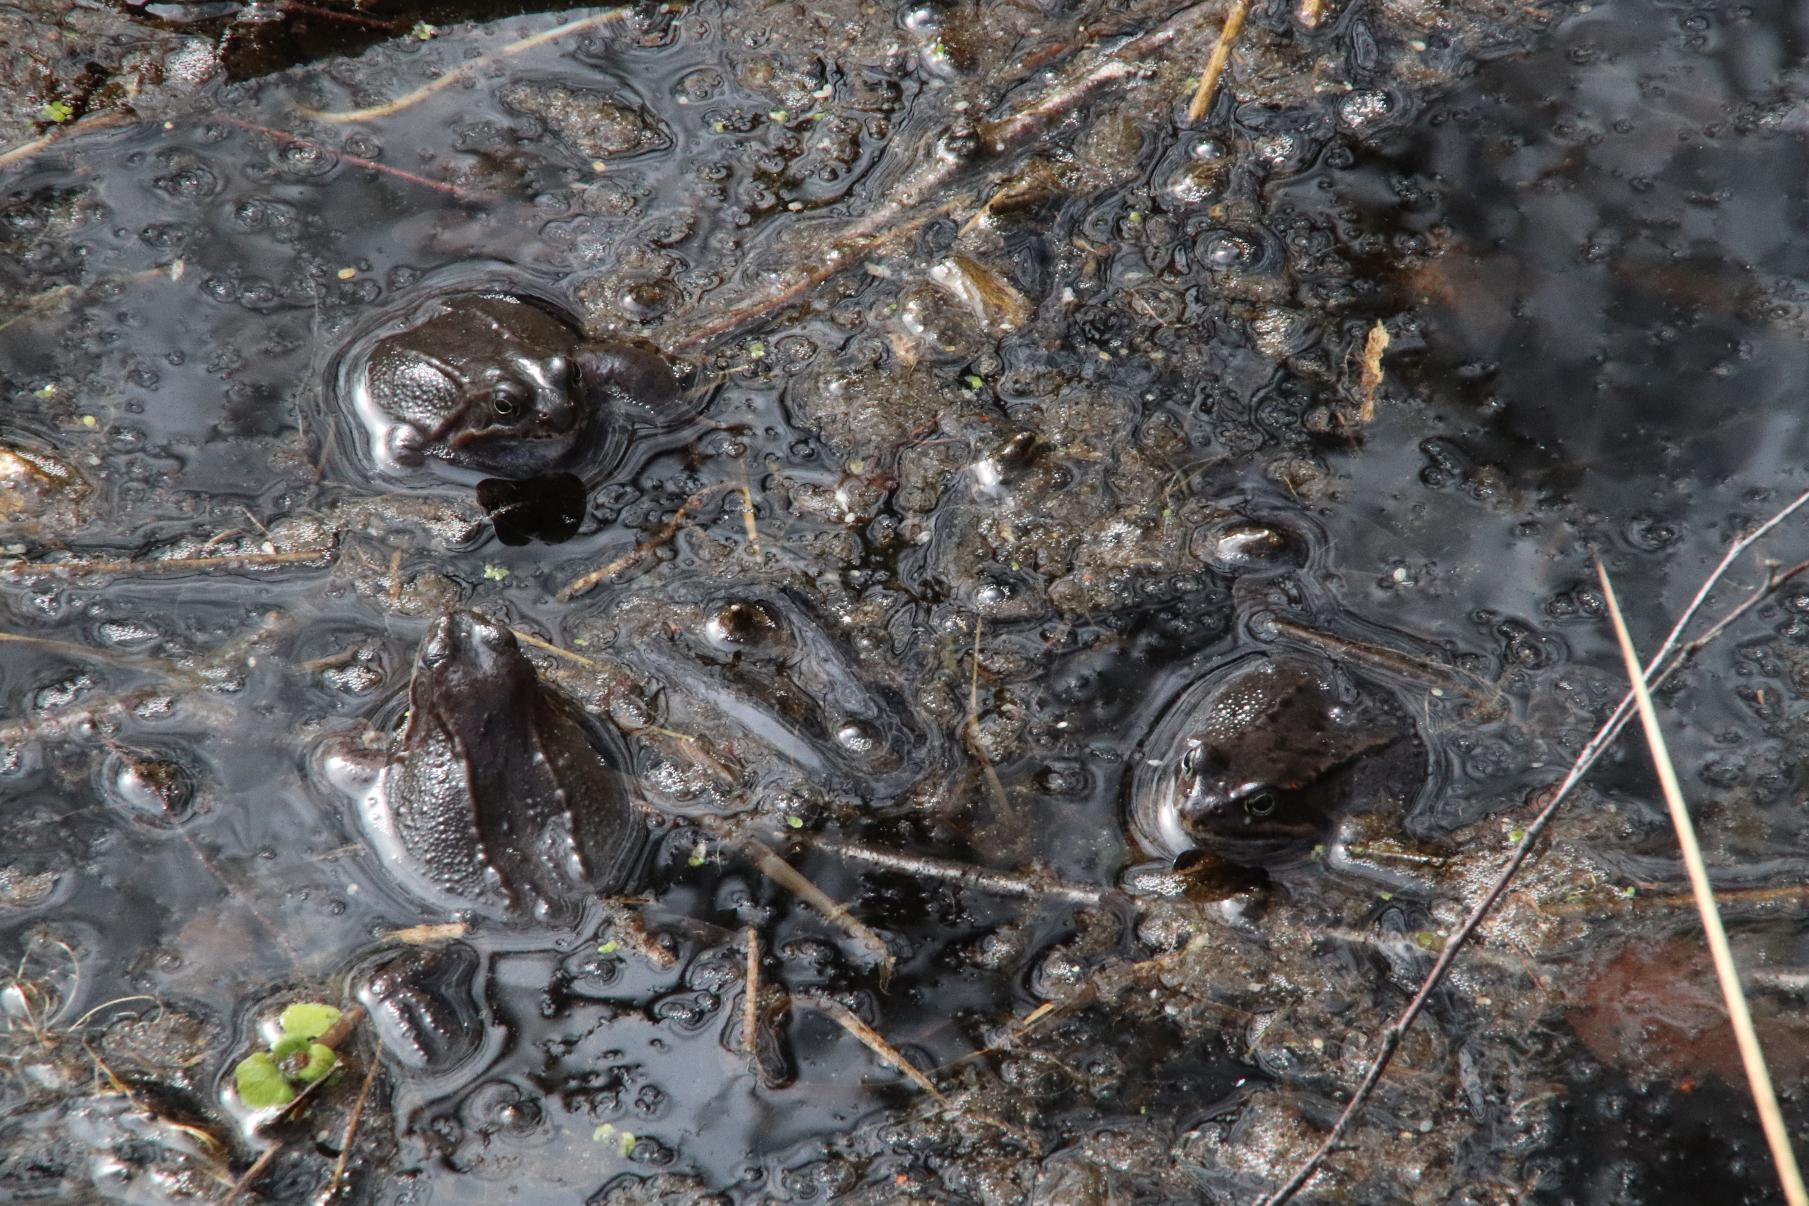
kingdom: Animalia
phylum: Chordata
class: Amphibia
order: Anura
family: Ranidae
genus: Rana
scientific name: Rana temporaria
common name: Butsnudet frø
